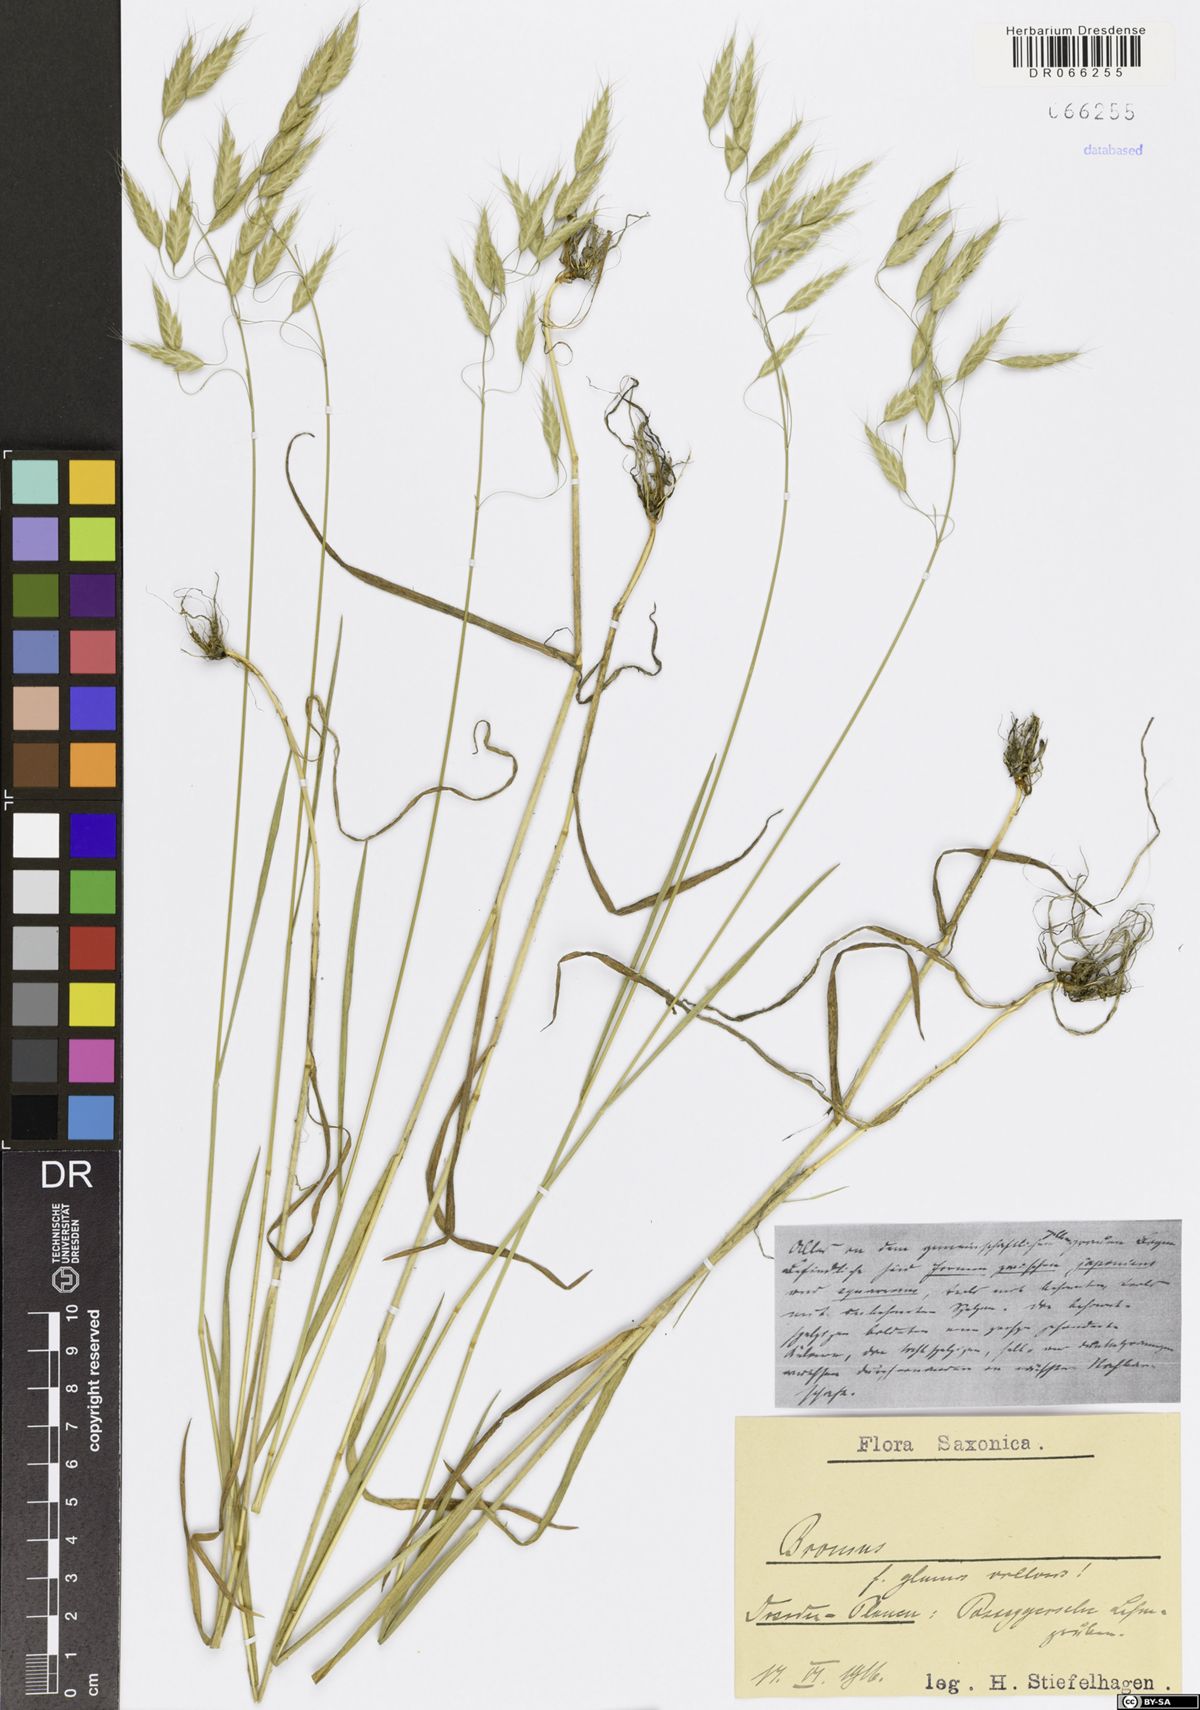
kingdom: Plantae
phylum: Tracheophyta
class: Liliopsida
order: Poales
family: Poaceae
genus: Bromus
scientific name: Bromus
